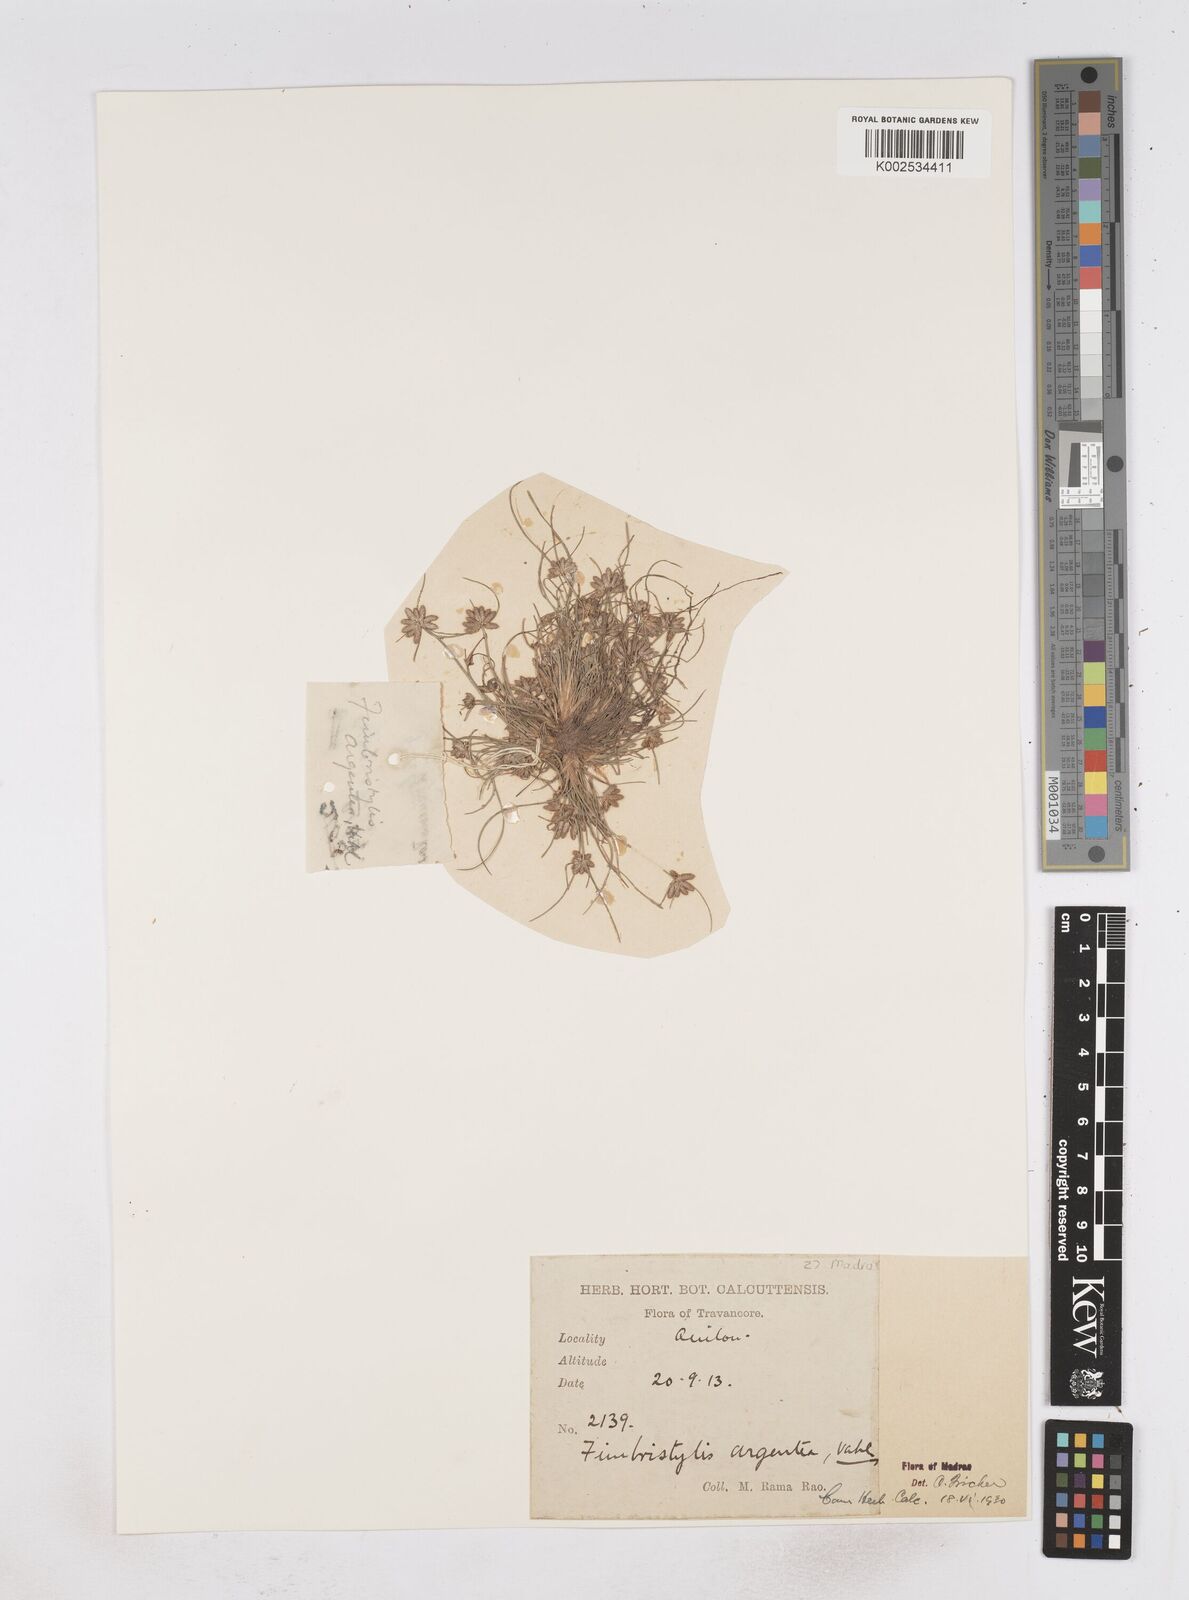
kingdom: Plantae
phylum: Tracheophyta
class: Liliopsida
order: Poales
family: Cyperaceae
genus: Fimbristylis
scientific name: Fimbristylis argentea
